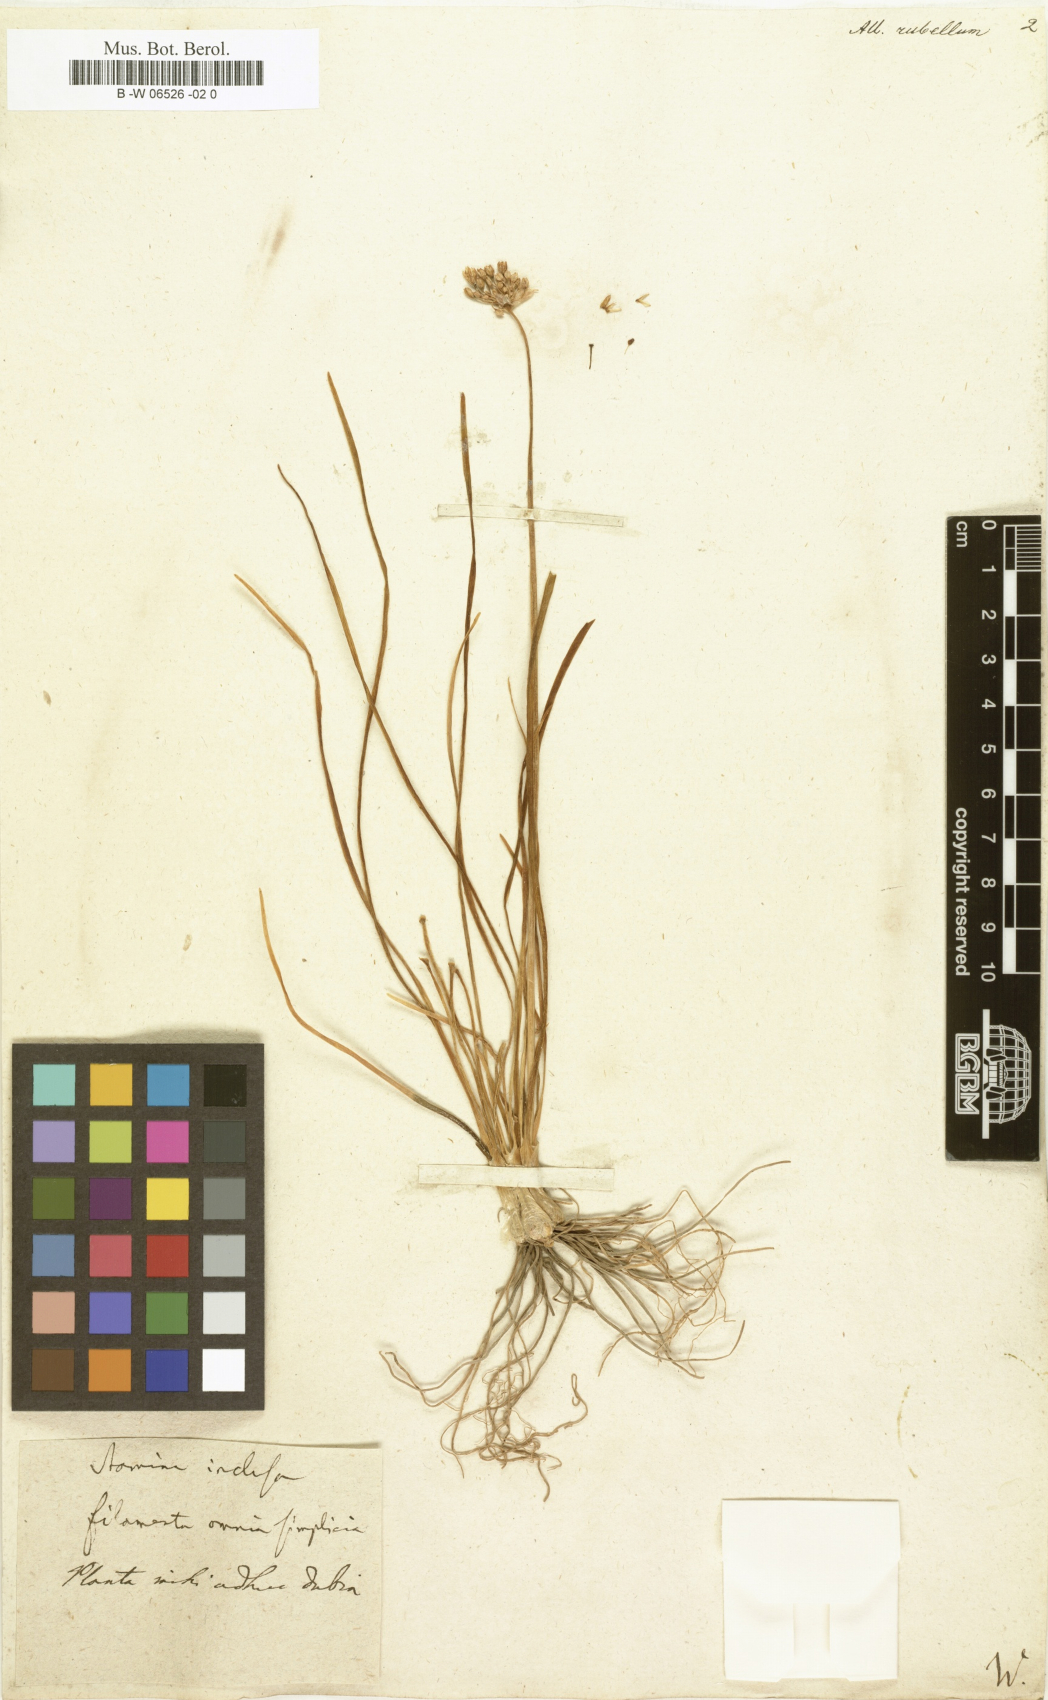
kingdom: Plantae
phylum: Tracheophyta
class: Liliopsida
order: Asparagales
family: Amaryllidaceae
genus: Allium
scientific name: Allium rubellum
